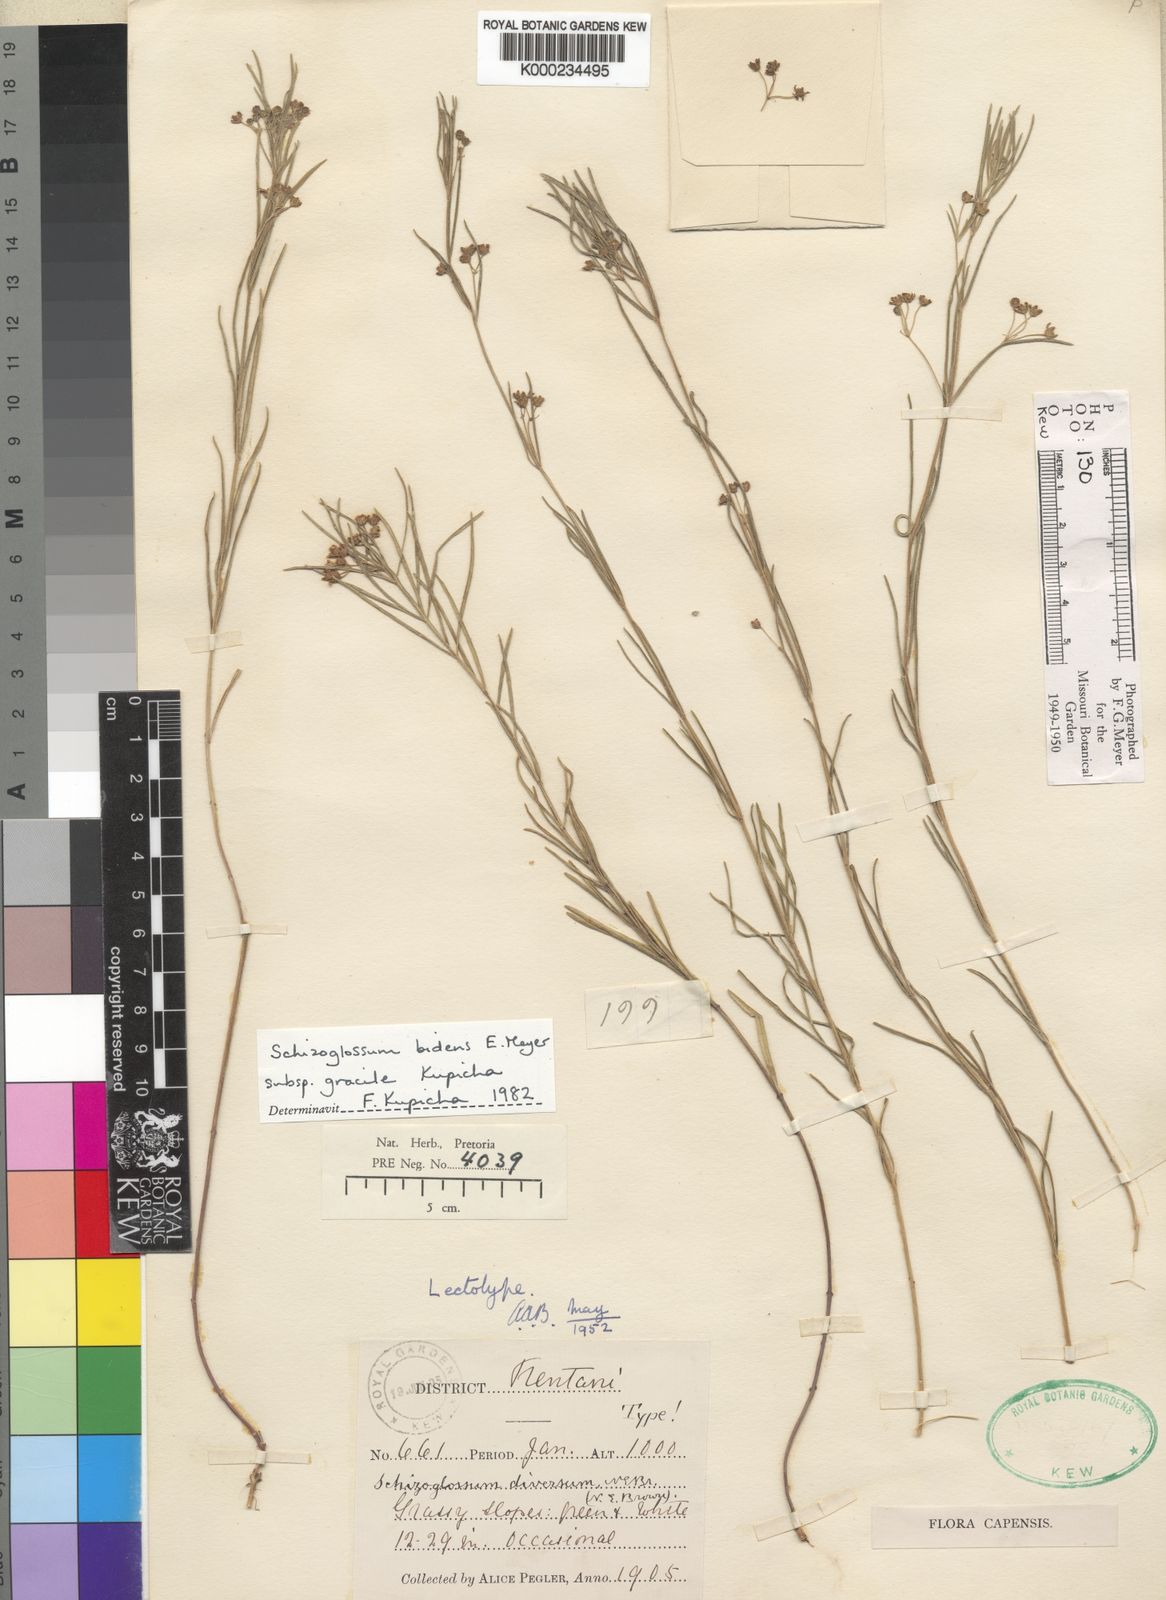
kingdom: Plantae
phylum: Tracheophyta
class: Magnoliopsida
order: Gentianales
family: Apocynaceae
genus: Schizoglossum
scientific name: Schizoglossum bidens
